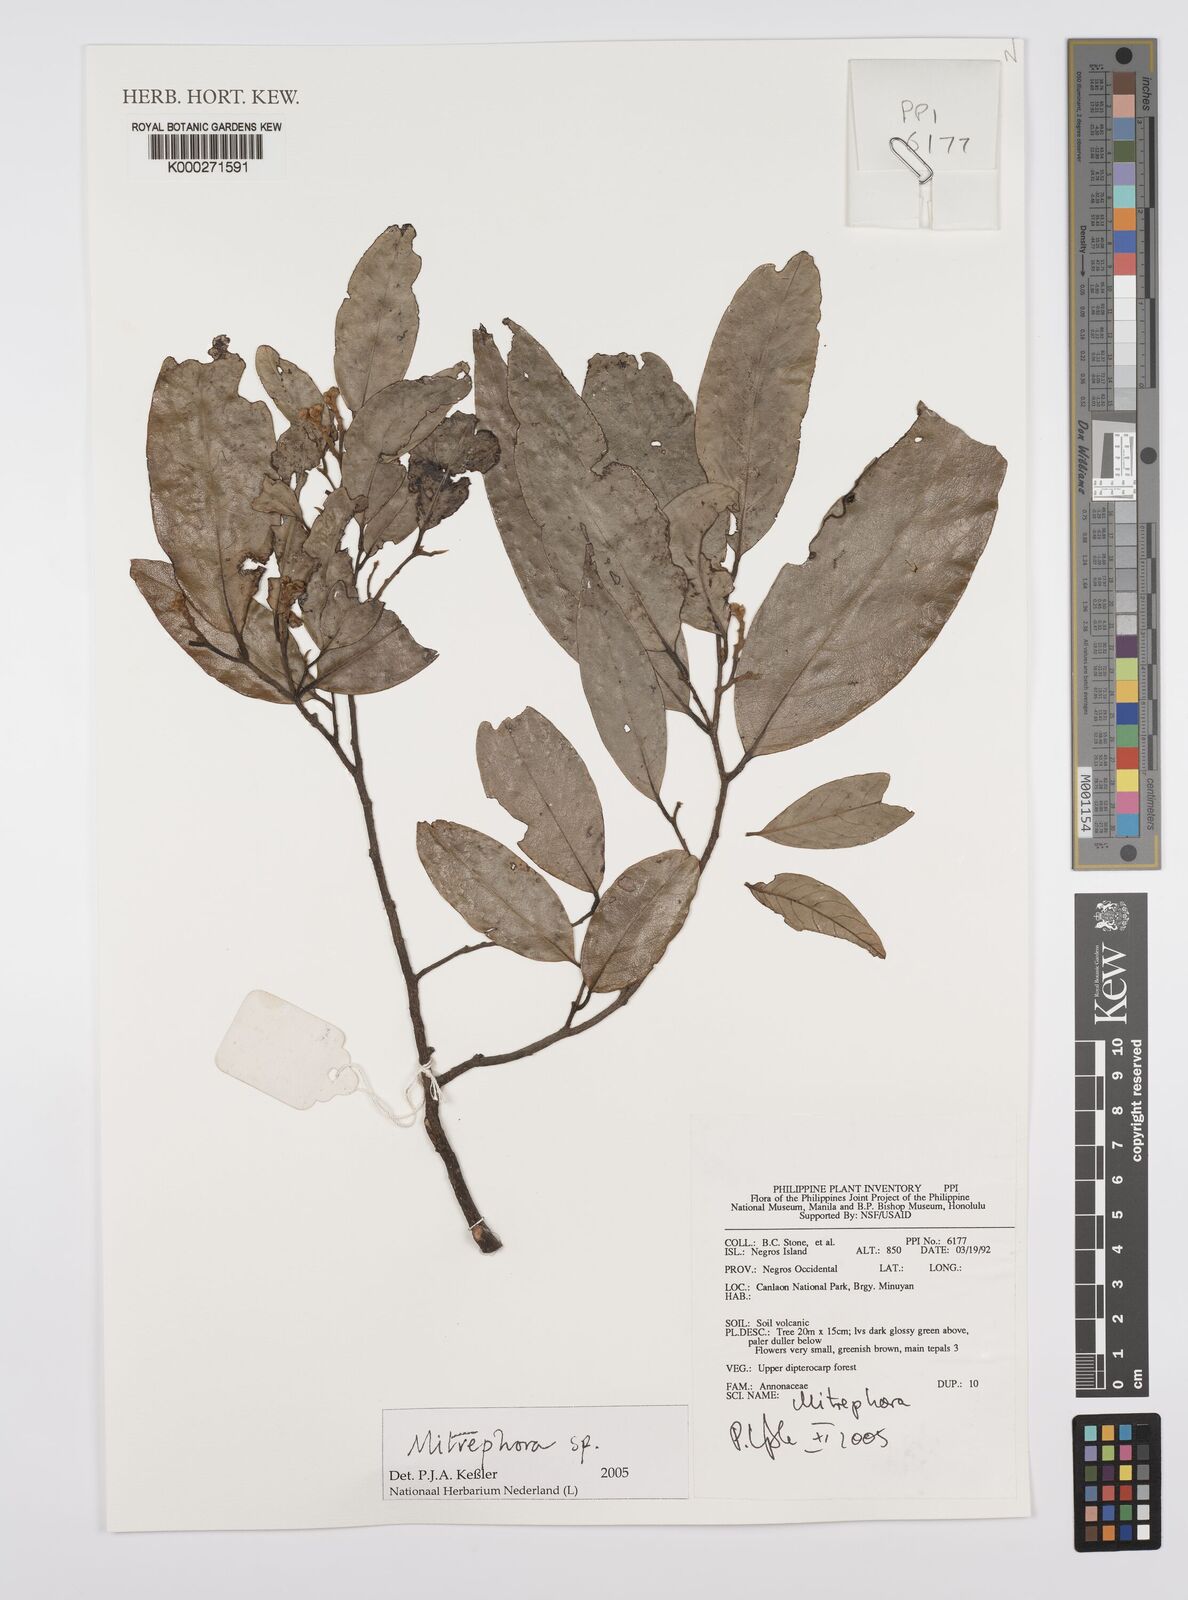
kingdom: Plantae
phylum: Tracheophyta
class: Magnoliopsida
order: Magnoliales
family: Annonaceae
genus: Mitrephora
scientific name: Mitrephora
